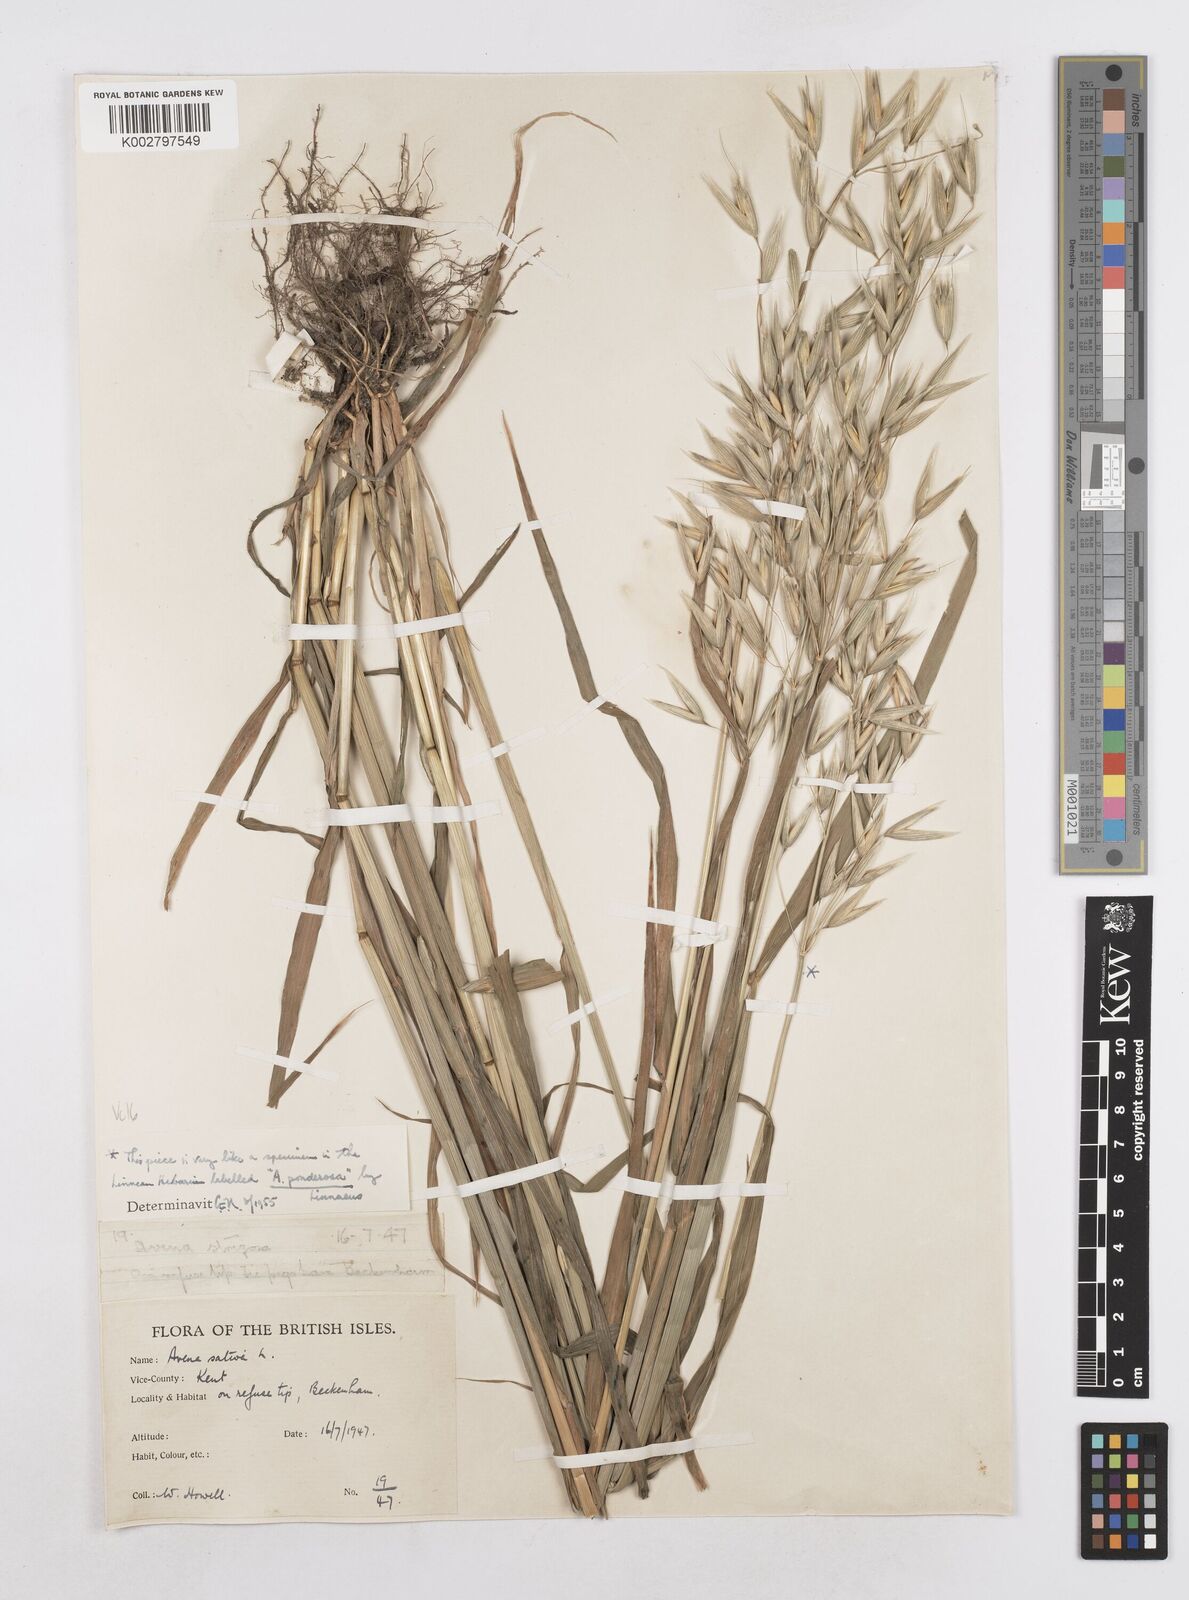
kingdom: Plantae
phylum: Tracheophyta
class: Liliopsida
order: Poales
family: Poaceae
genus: Avena
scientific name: Avena sativa
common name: Oat
